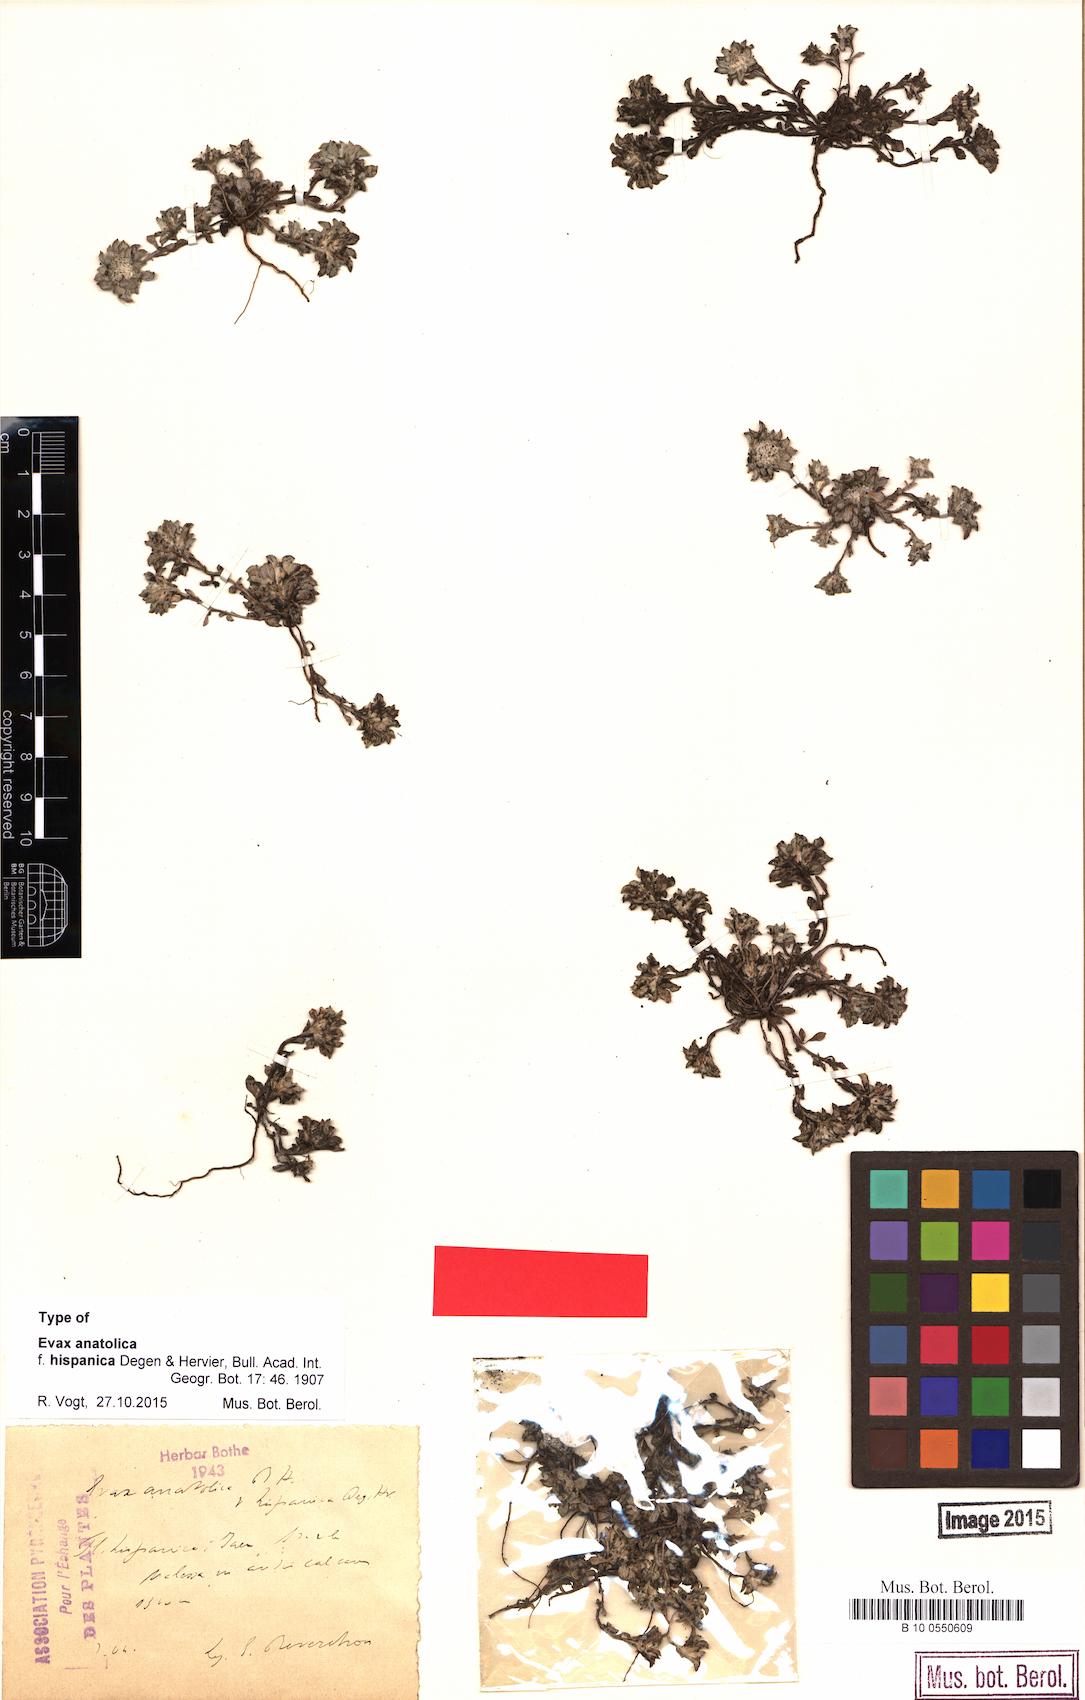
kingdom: Plantae
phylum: Tracheophyta
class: Magnoliopsida
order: Asterales
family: Asteraceae
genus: Filago
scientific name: Filago hispanica
